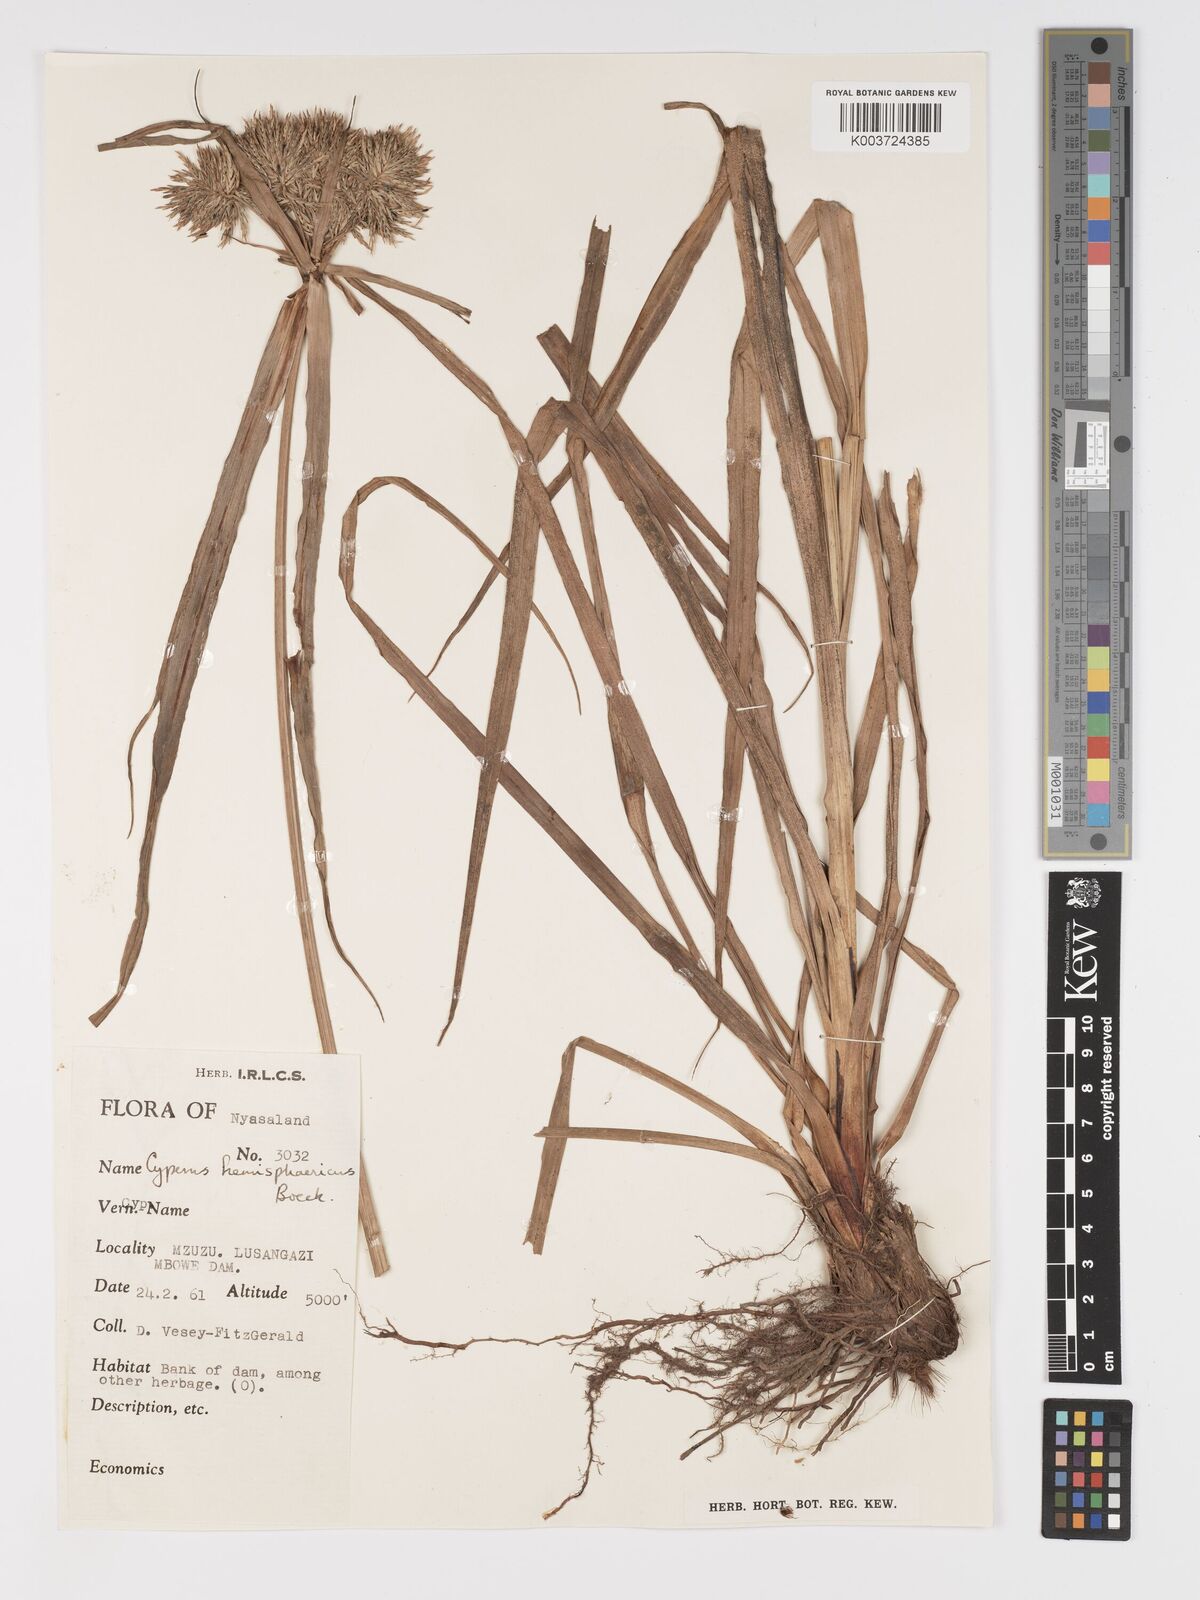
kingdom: Plantae
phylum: Tracheophyta
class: Liliopsida
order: Poales
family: Cyperaceae
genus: Cyperus
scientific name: Cyperus hemisphaericus
